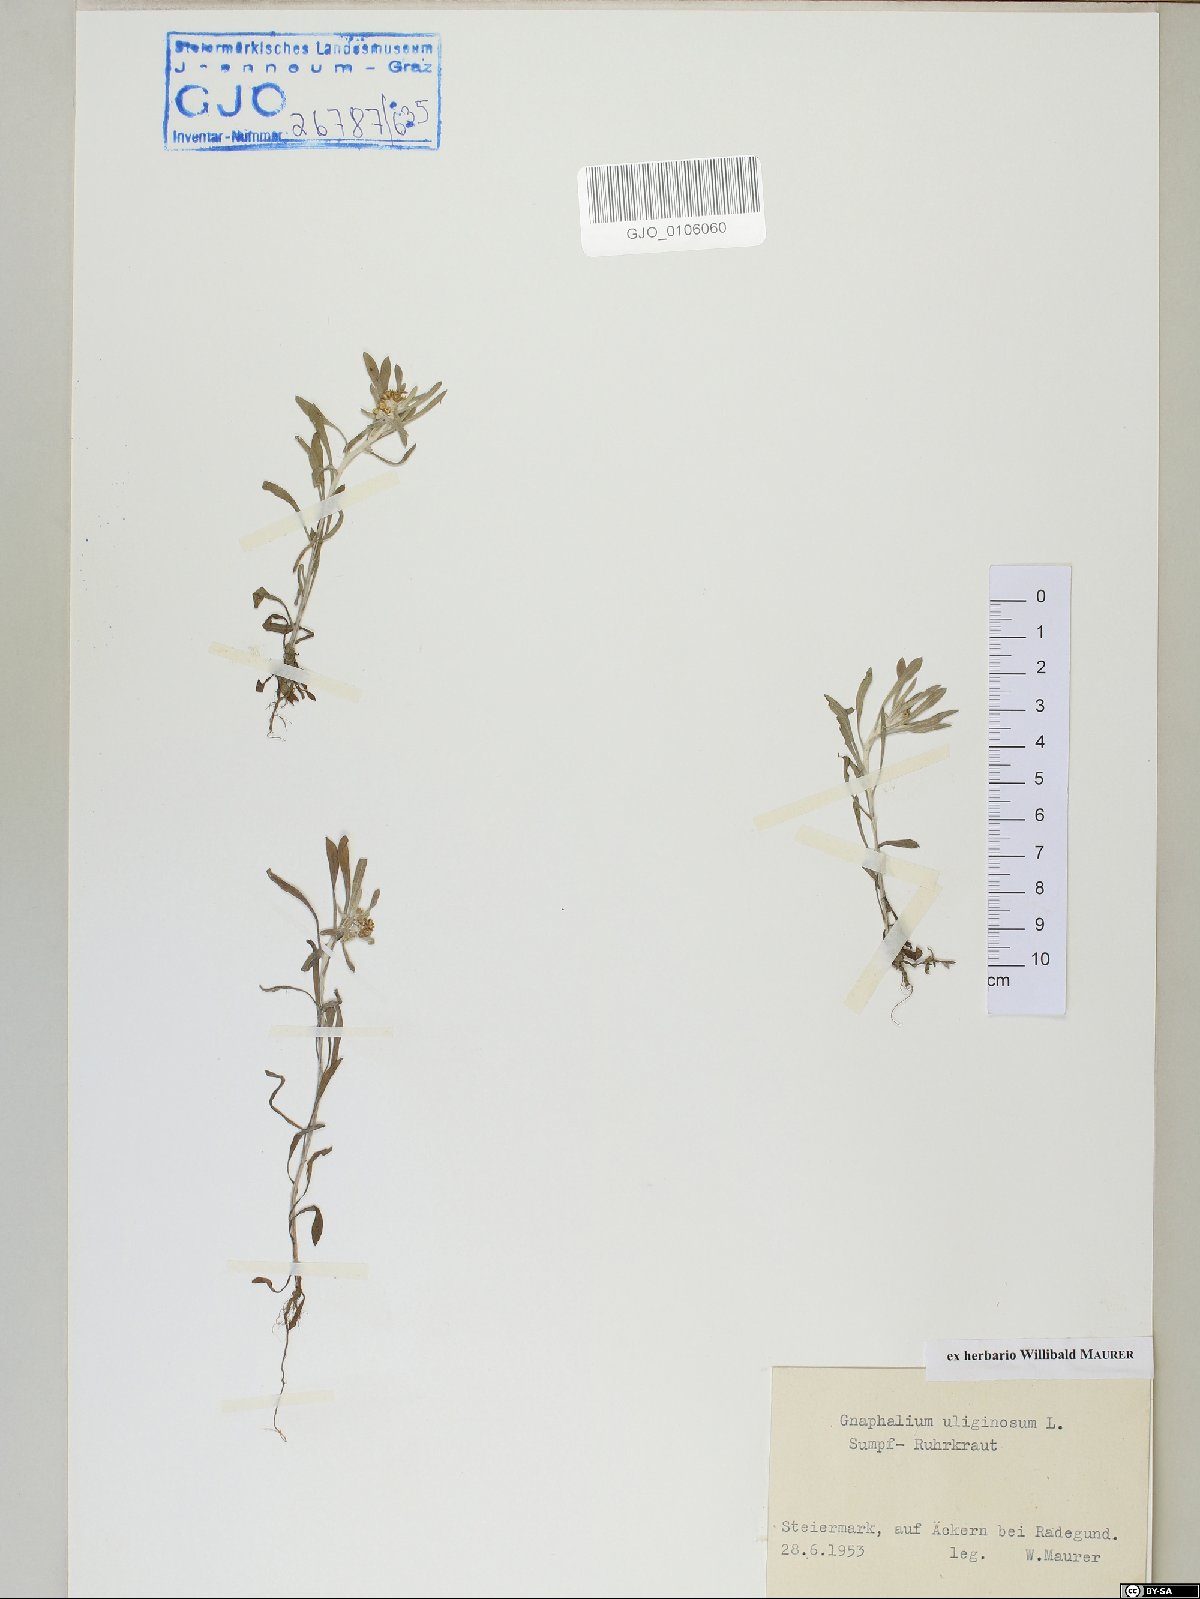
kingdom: Plantae
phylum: Tracheophyta
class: Magnoliopsida
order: Asterales
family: Asteraceae
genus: Gnaphalium
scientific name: Gnaphalium uliginosum
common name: Marsh cudweed
